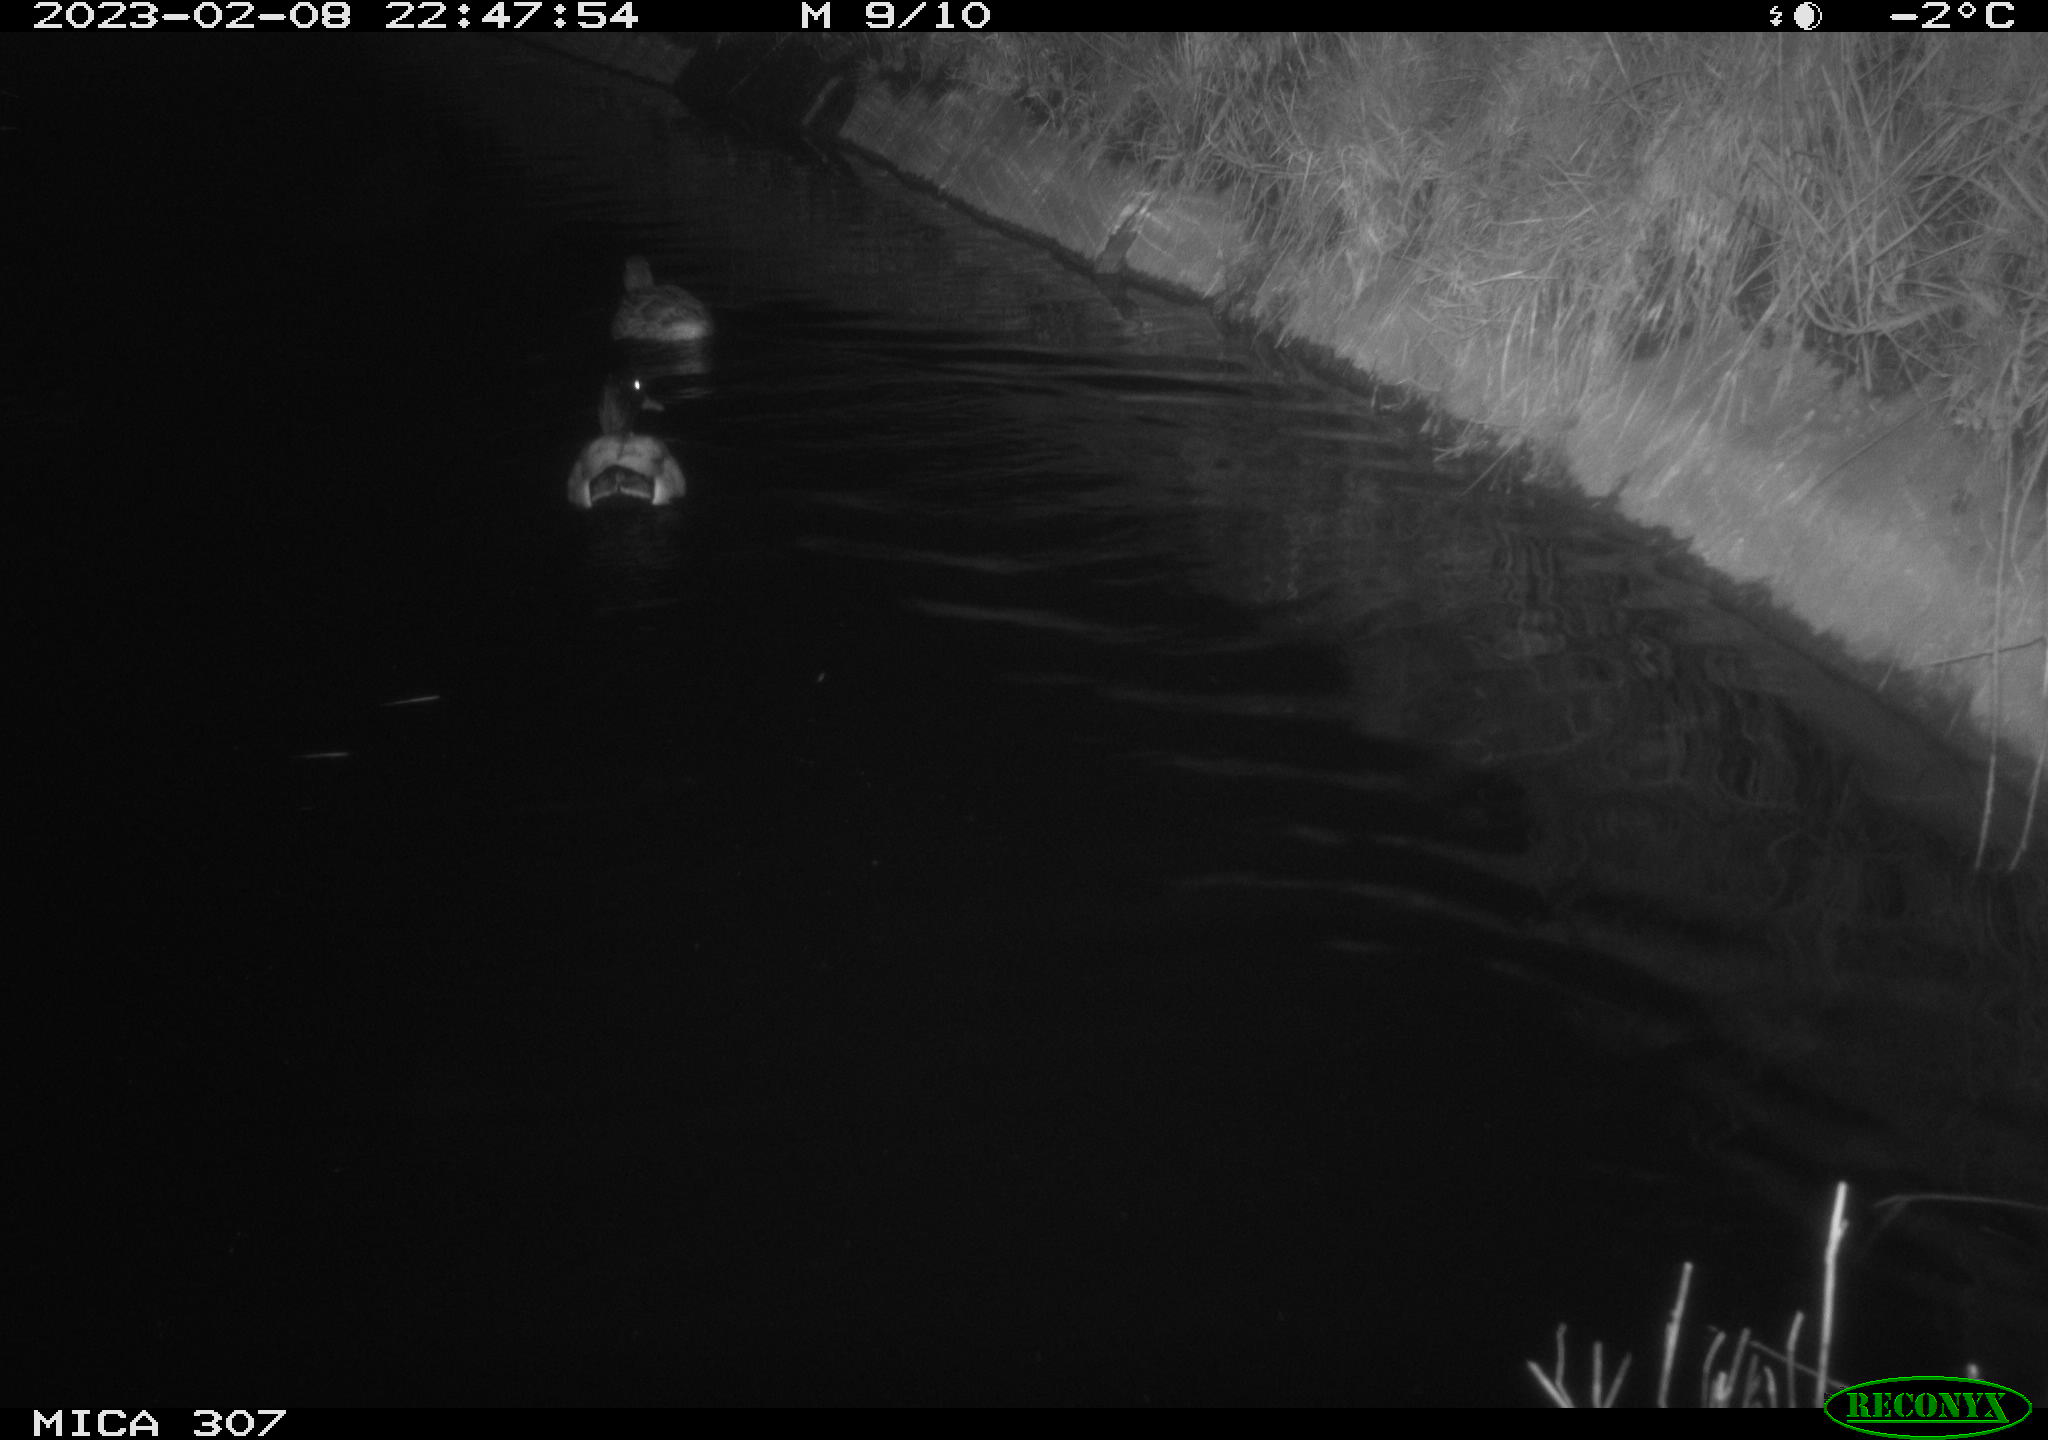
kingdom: Animalia
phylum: Chordata
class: Aves
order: Anseriformes
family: Anatidae
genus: Anas
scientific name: Anas
